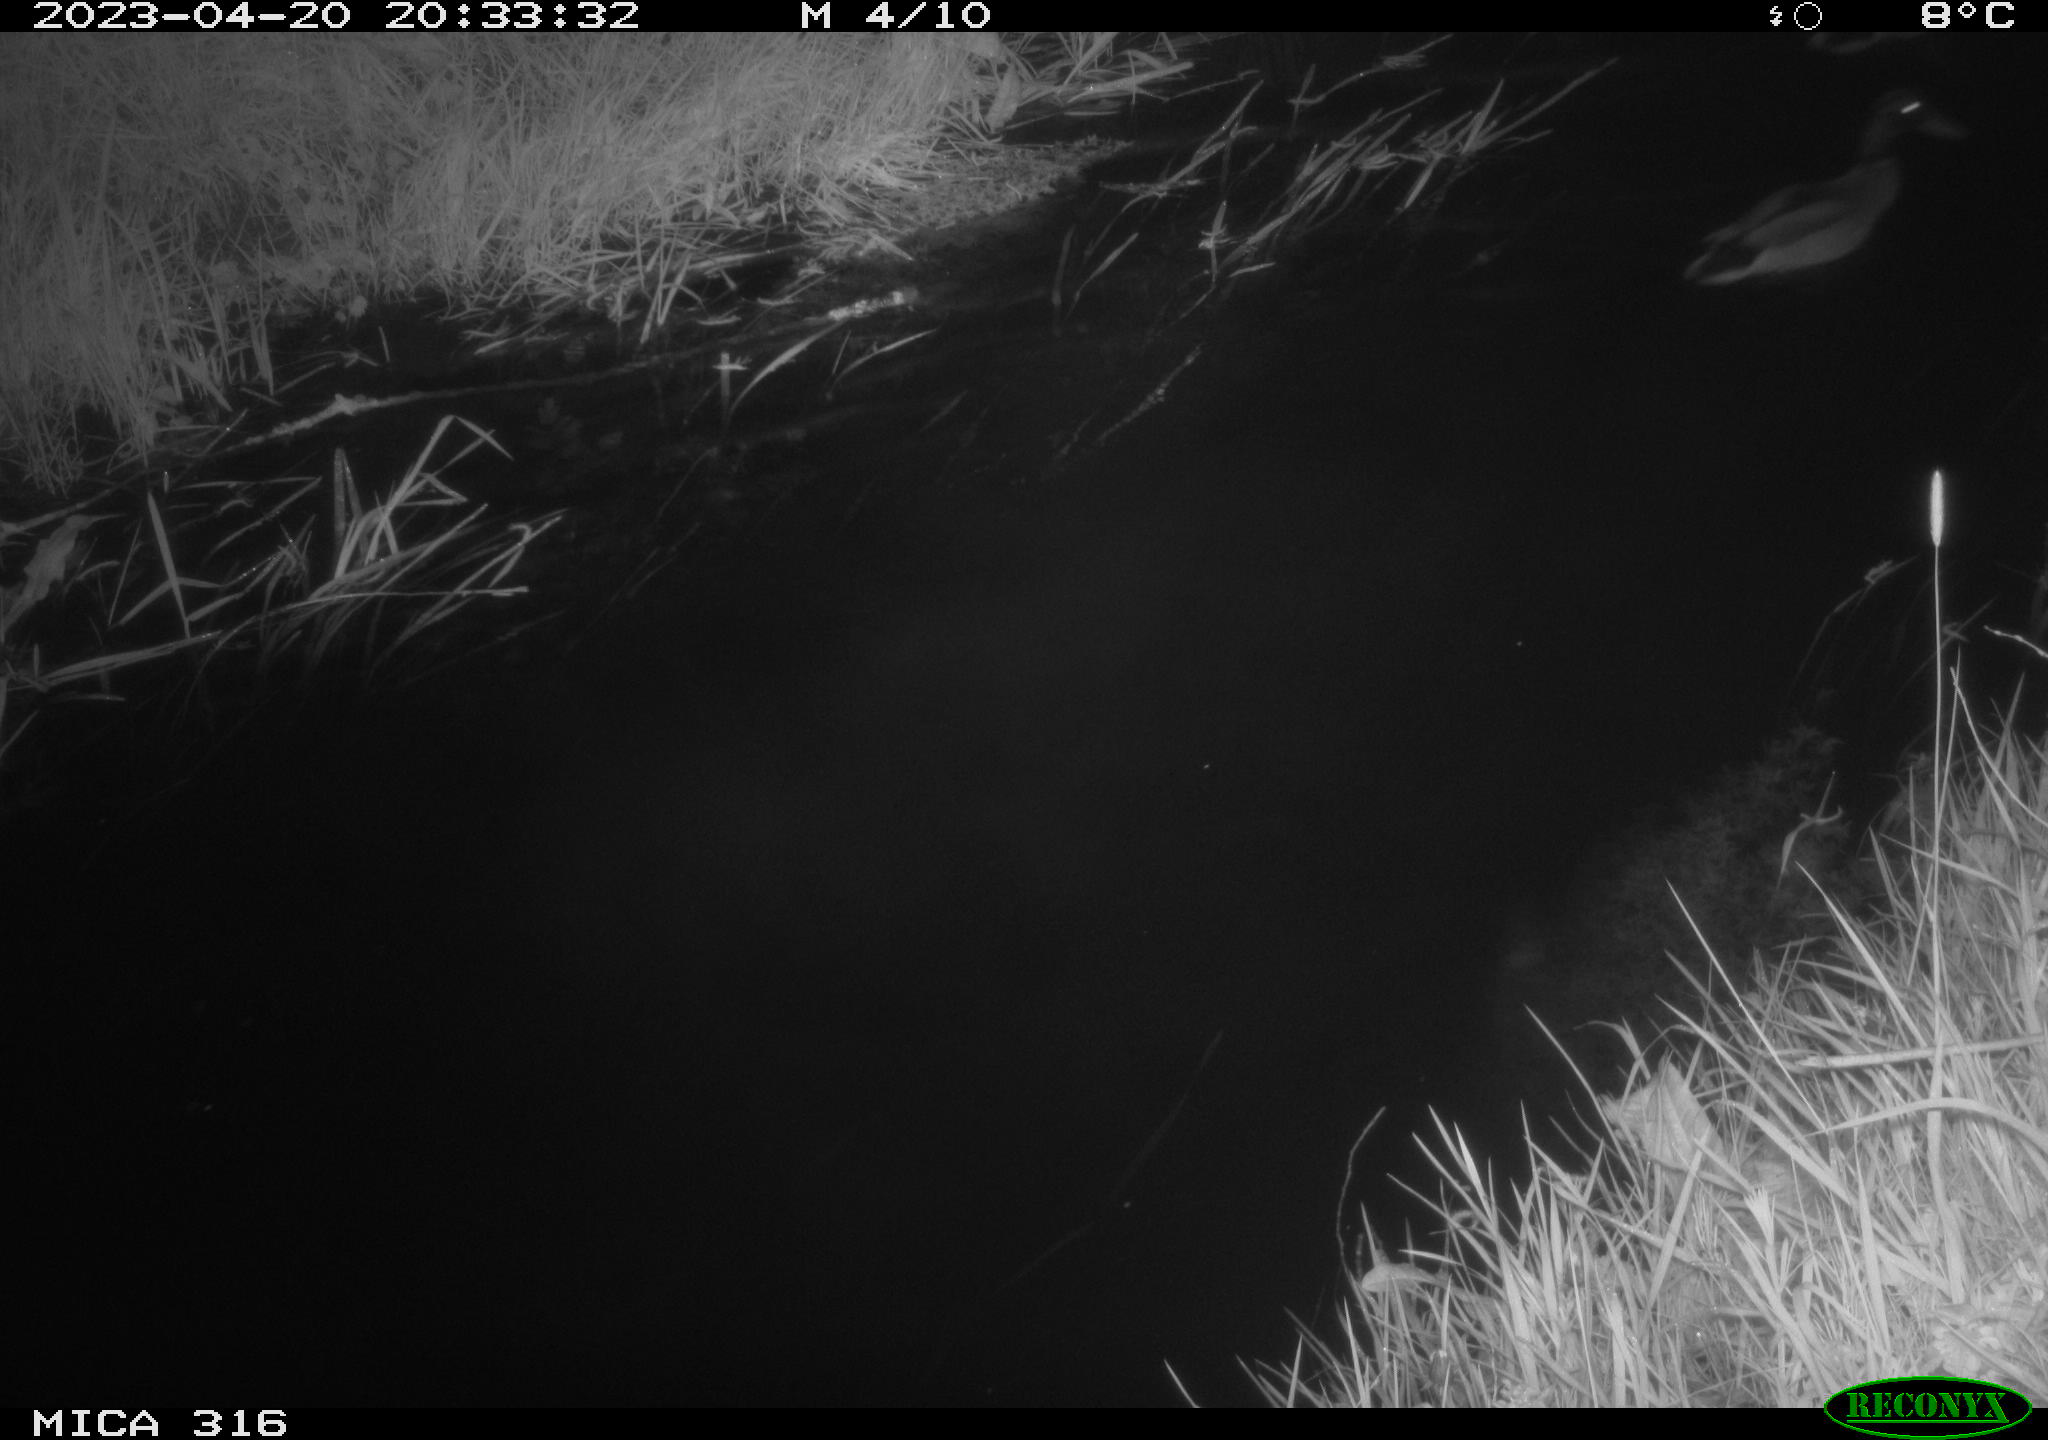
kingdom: Animalia
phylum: Chordata
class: Aves
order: Anseriformes
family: Anatidae
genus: Anas
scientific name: Anas
